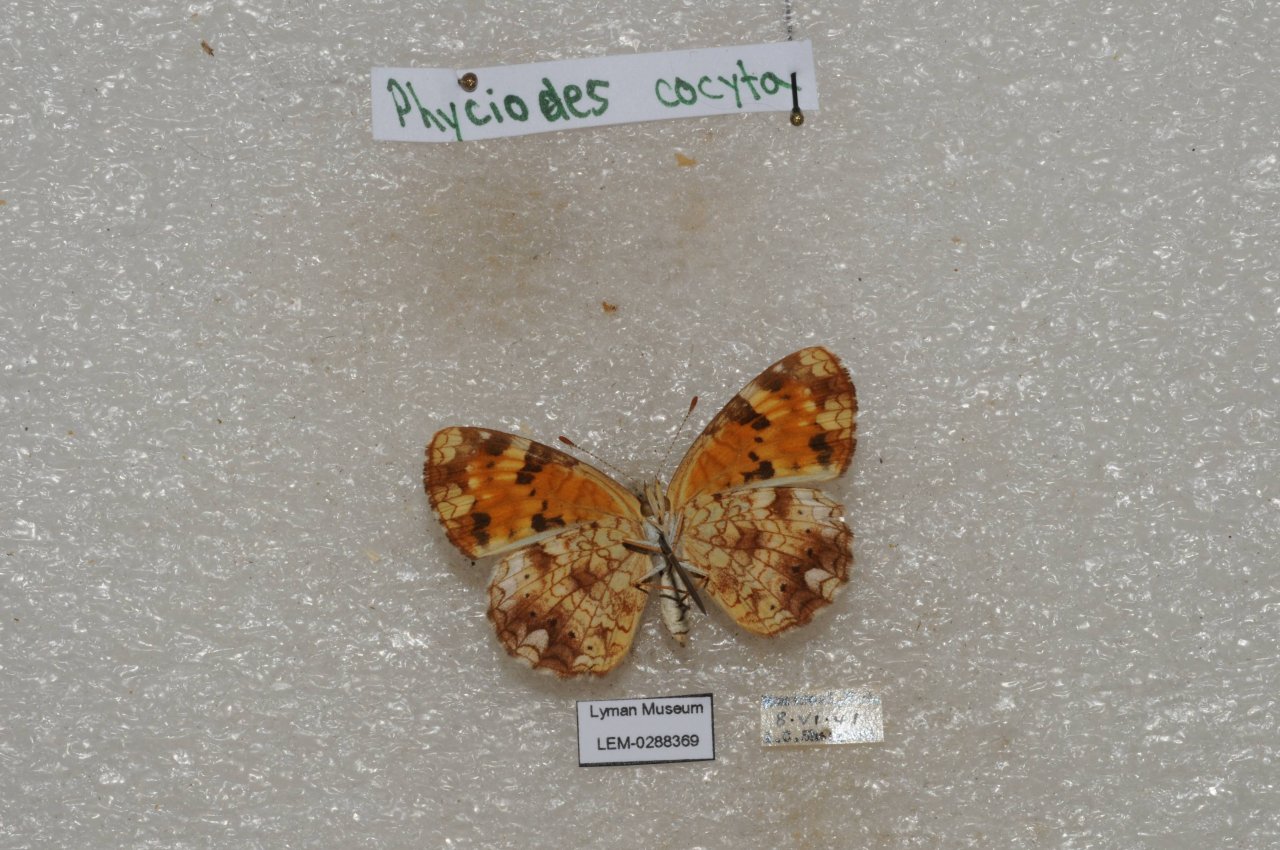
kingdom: Animalia
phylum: Arthropoda
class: Insecta
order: Lepidoptera
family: Nymphalidae
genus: Phyciodes
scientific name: Phyciodes tharos
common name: Northern Crescent
